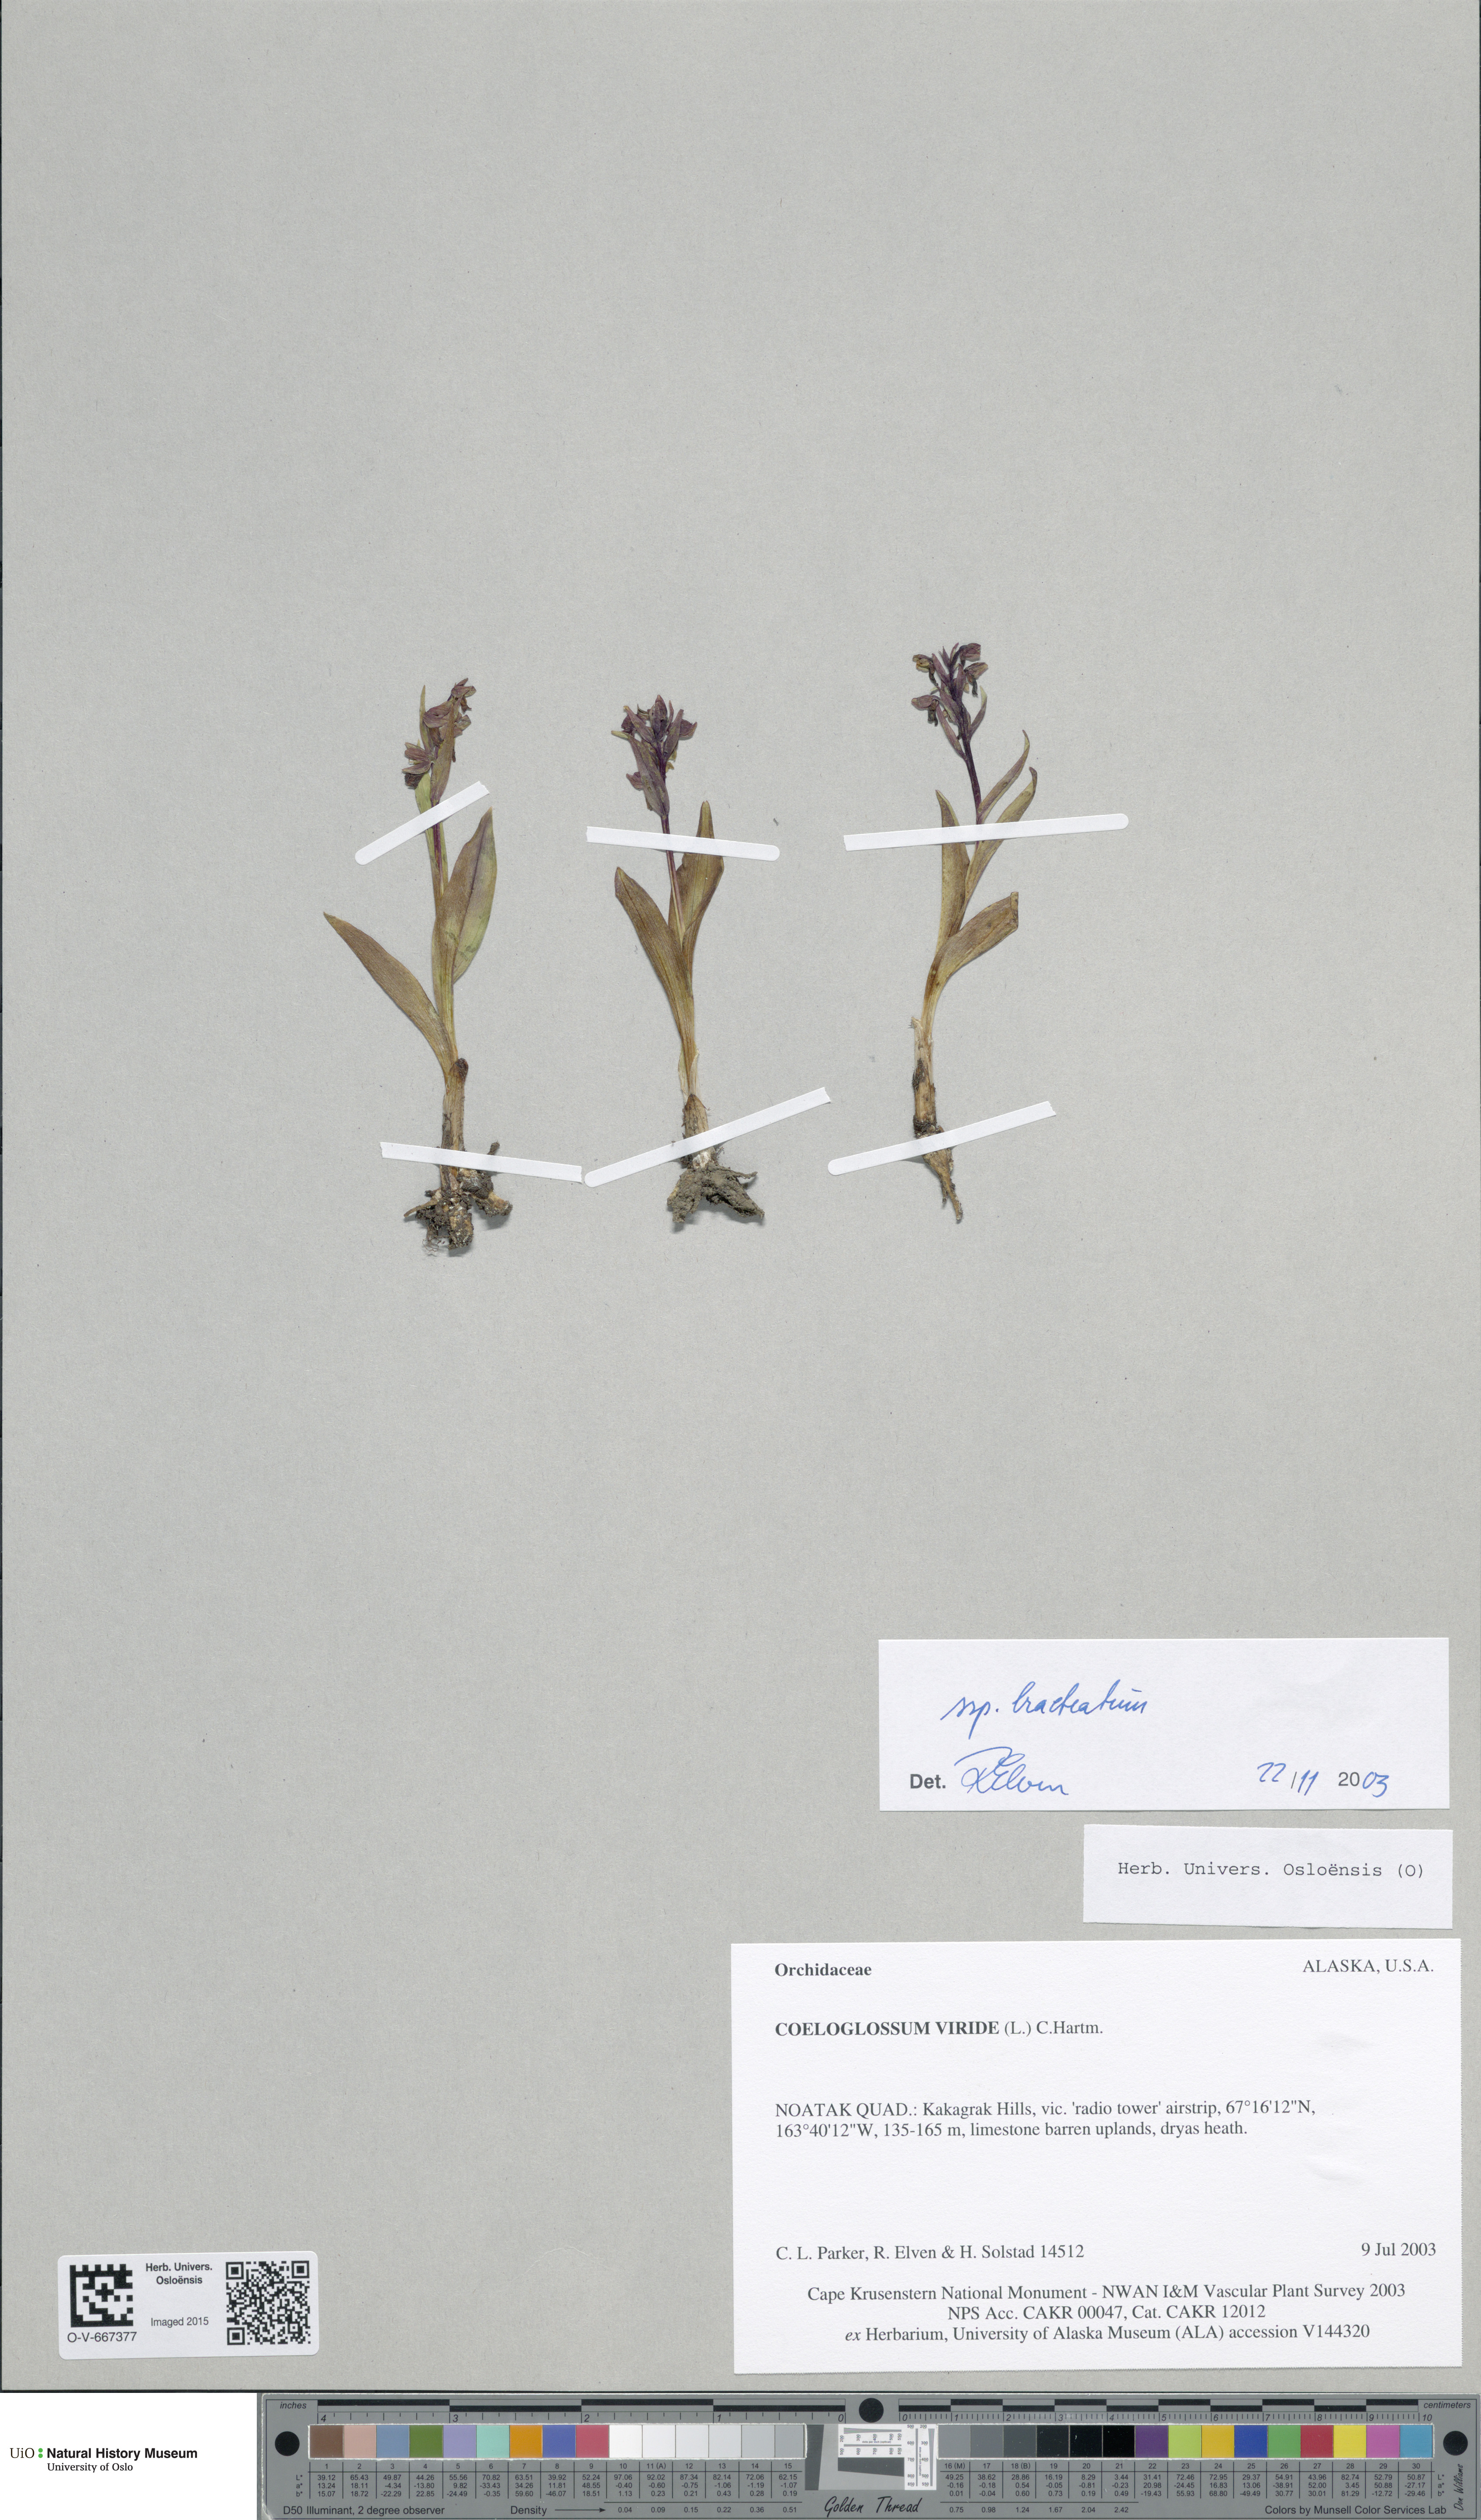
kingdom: Plantae
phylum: Tracheophyta
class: Liliopsida
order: Asparagales
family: Orchidaceae
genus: Dactylorhiza
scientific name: Dactylorhiza viridis
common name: Longbract frog orchid
